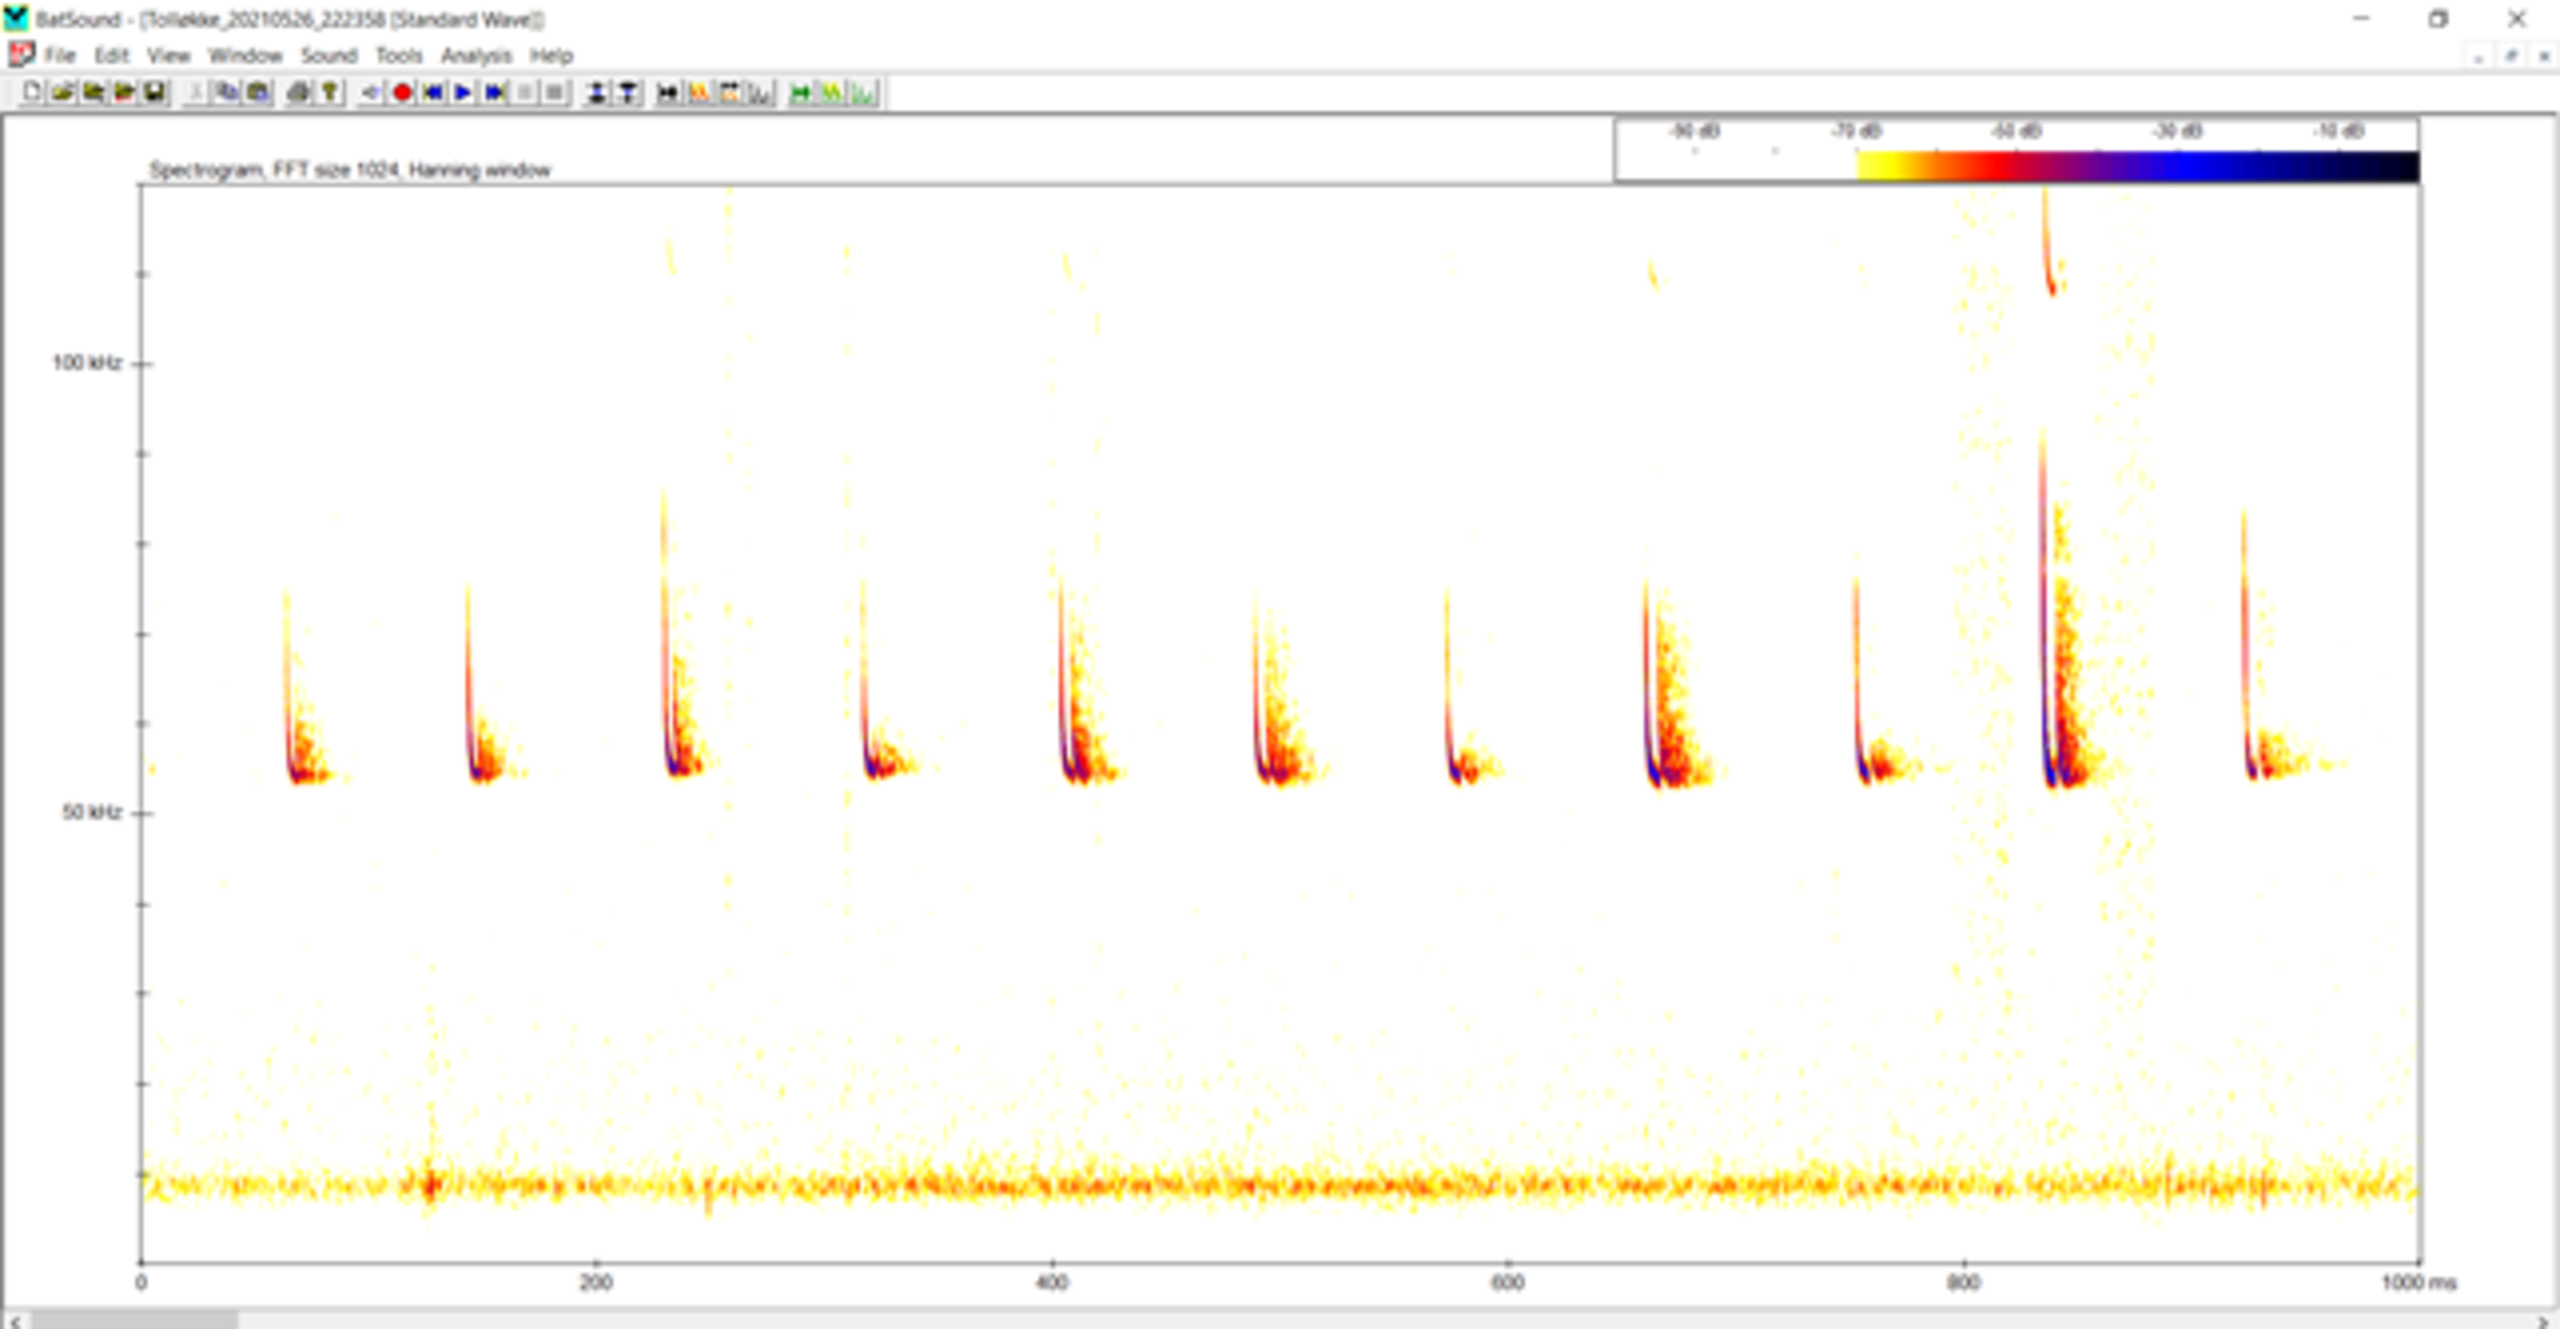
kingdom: Animalia
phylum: Chordata
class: Mammalia
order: Chiroptera
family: Vespertilionidae
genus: Pipistrellus
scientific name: Pipistrellus pygmaeus
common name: Dværgflagermus
